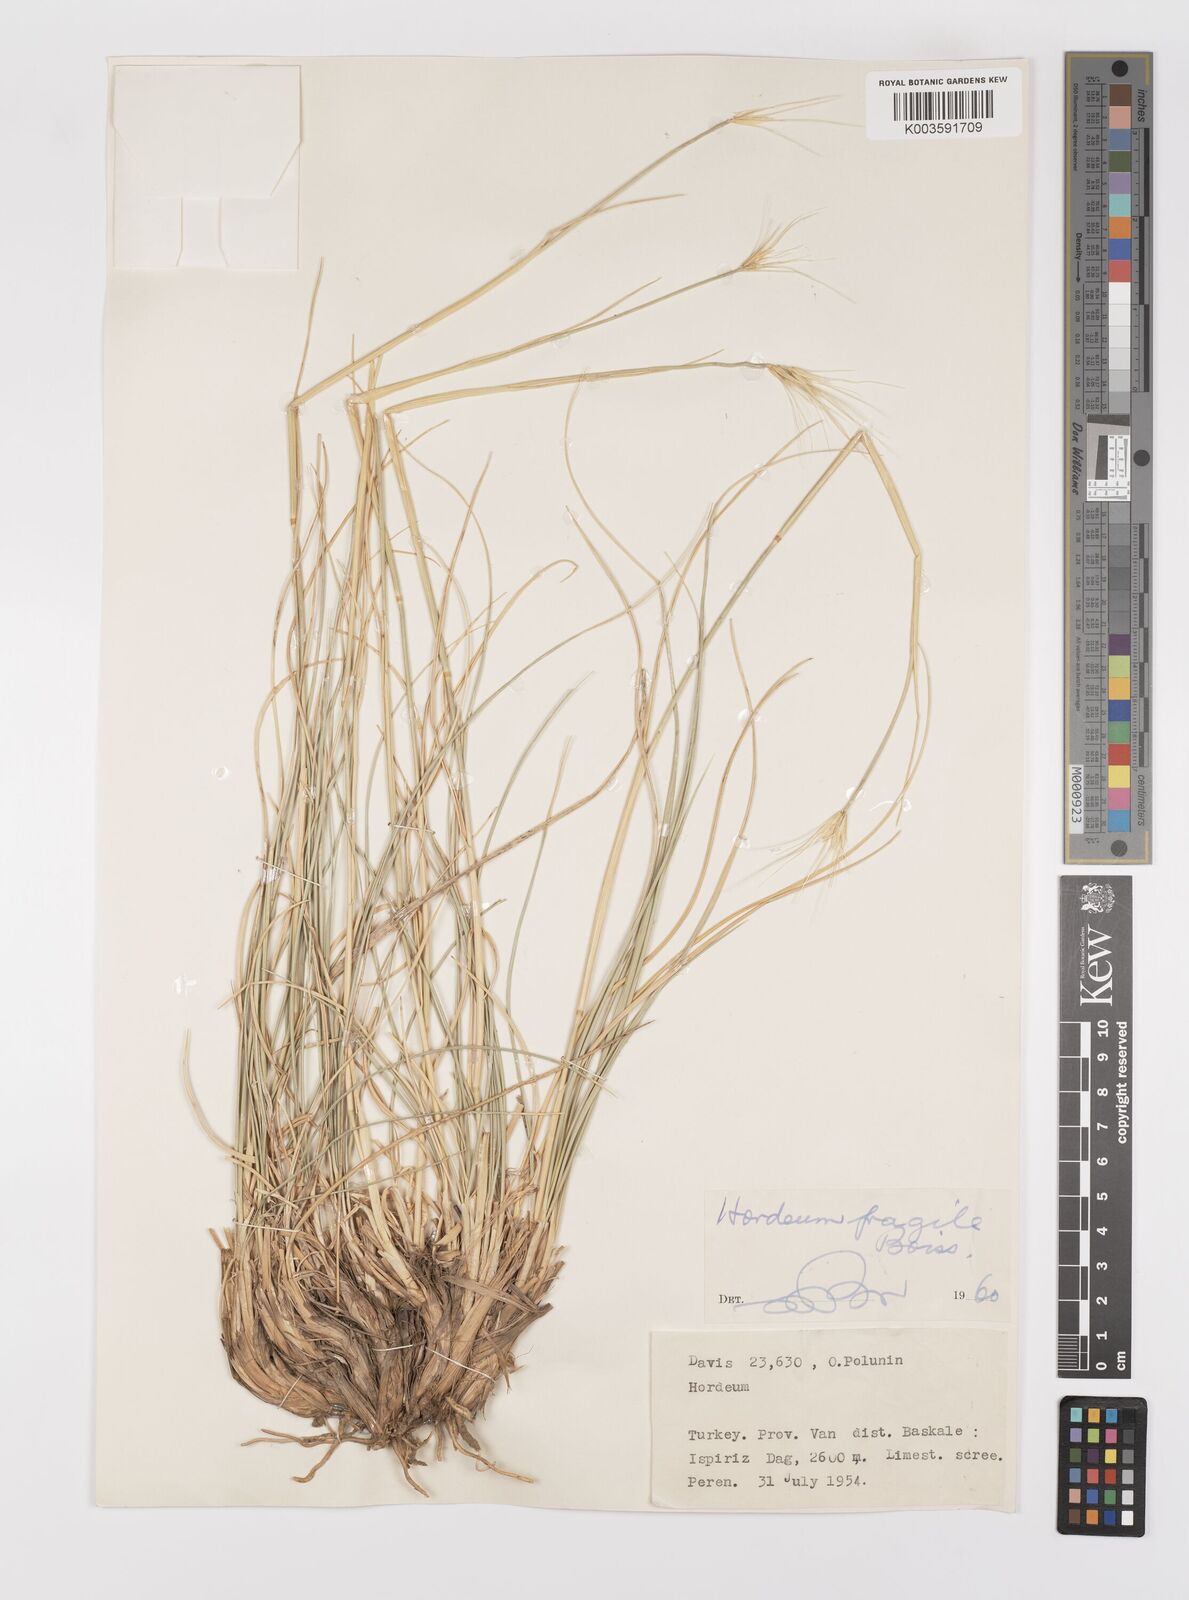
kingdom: Plantae
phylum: Tracheophyta
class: Liliopsida
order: Poales
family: Poaceae
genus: Psathyrostachys
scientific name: Psathyrostachys fragilis
